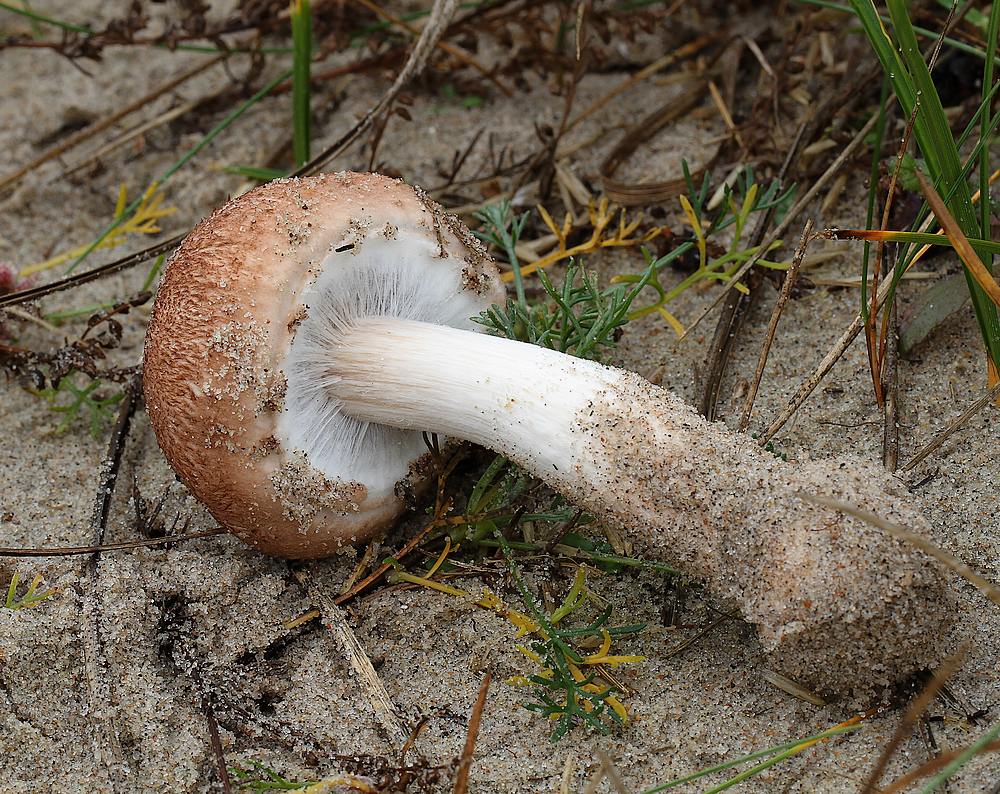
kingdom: Fungi
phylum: Basidiomycota
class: Agaricomycetes
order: Agaricales
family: Agaricaceae
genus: Agaricus
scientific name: Agaricus freirei
